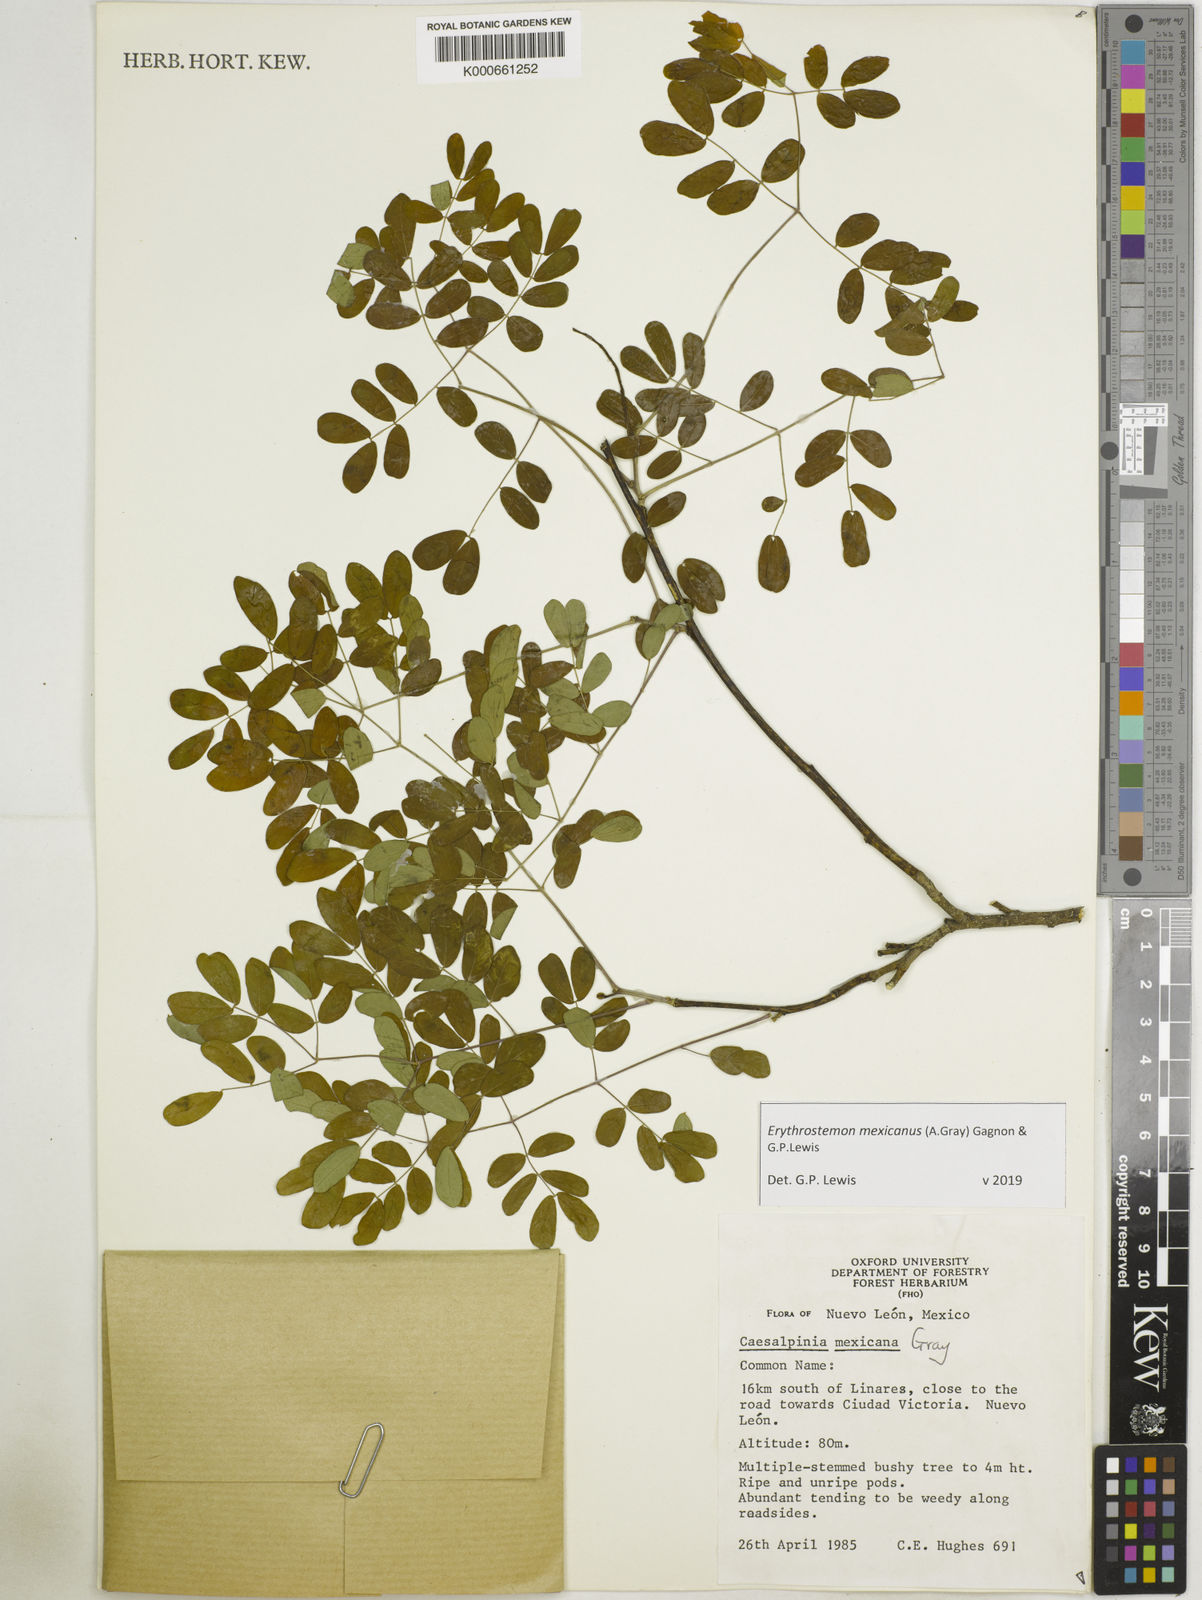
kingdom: Plantae
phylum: Tracheophyta
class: Magnoliopsida
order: Fabales
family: Fabaceae
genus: Erythrostemon
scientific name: Erythrostemon mexicanus
